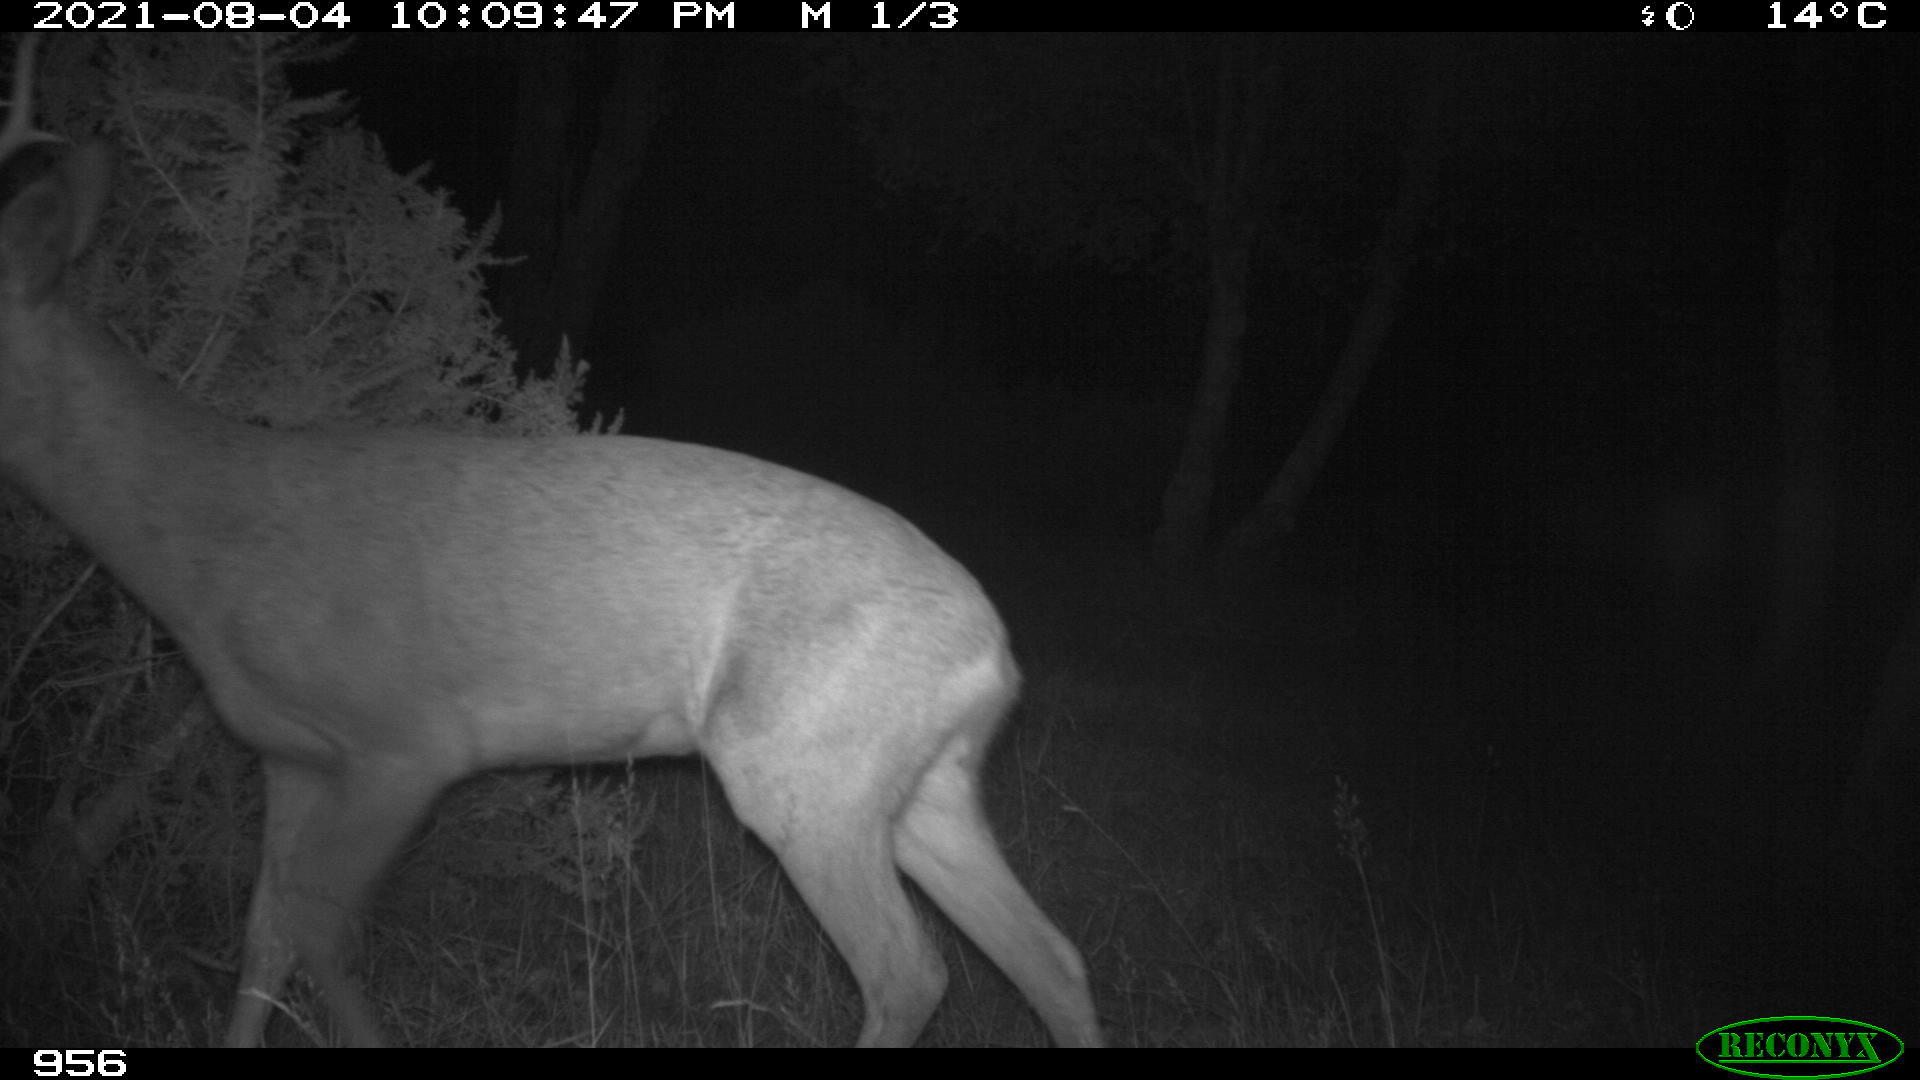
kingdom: Animalia
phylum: Chordata
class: Mammalia
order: Artiodactyla
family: Cervidae
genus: Capreolus
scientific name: Capreolus capreolus
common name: Western roe deer
